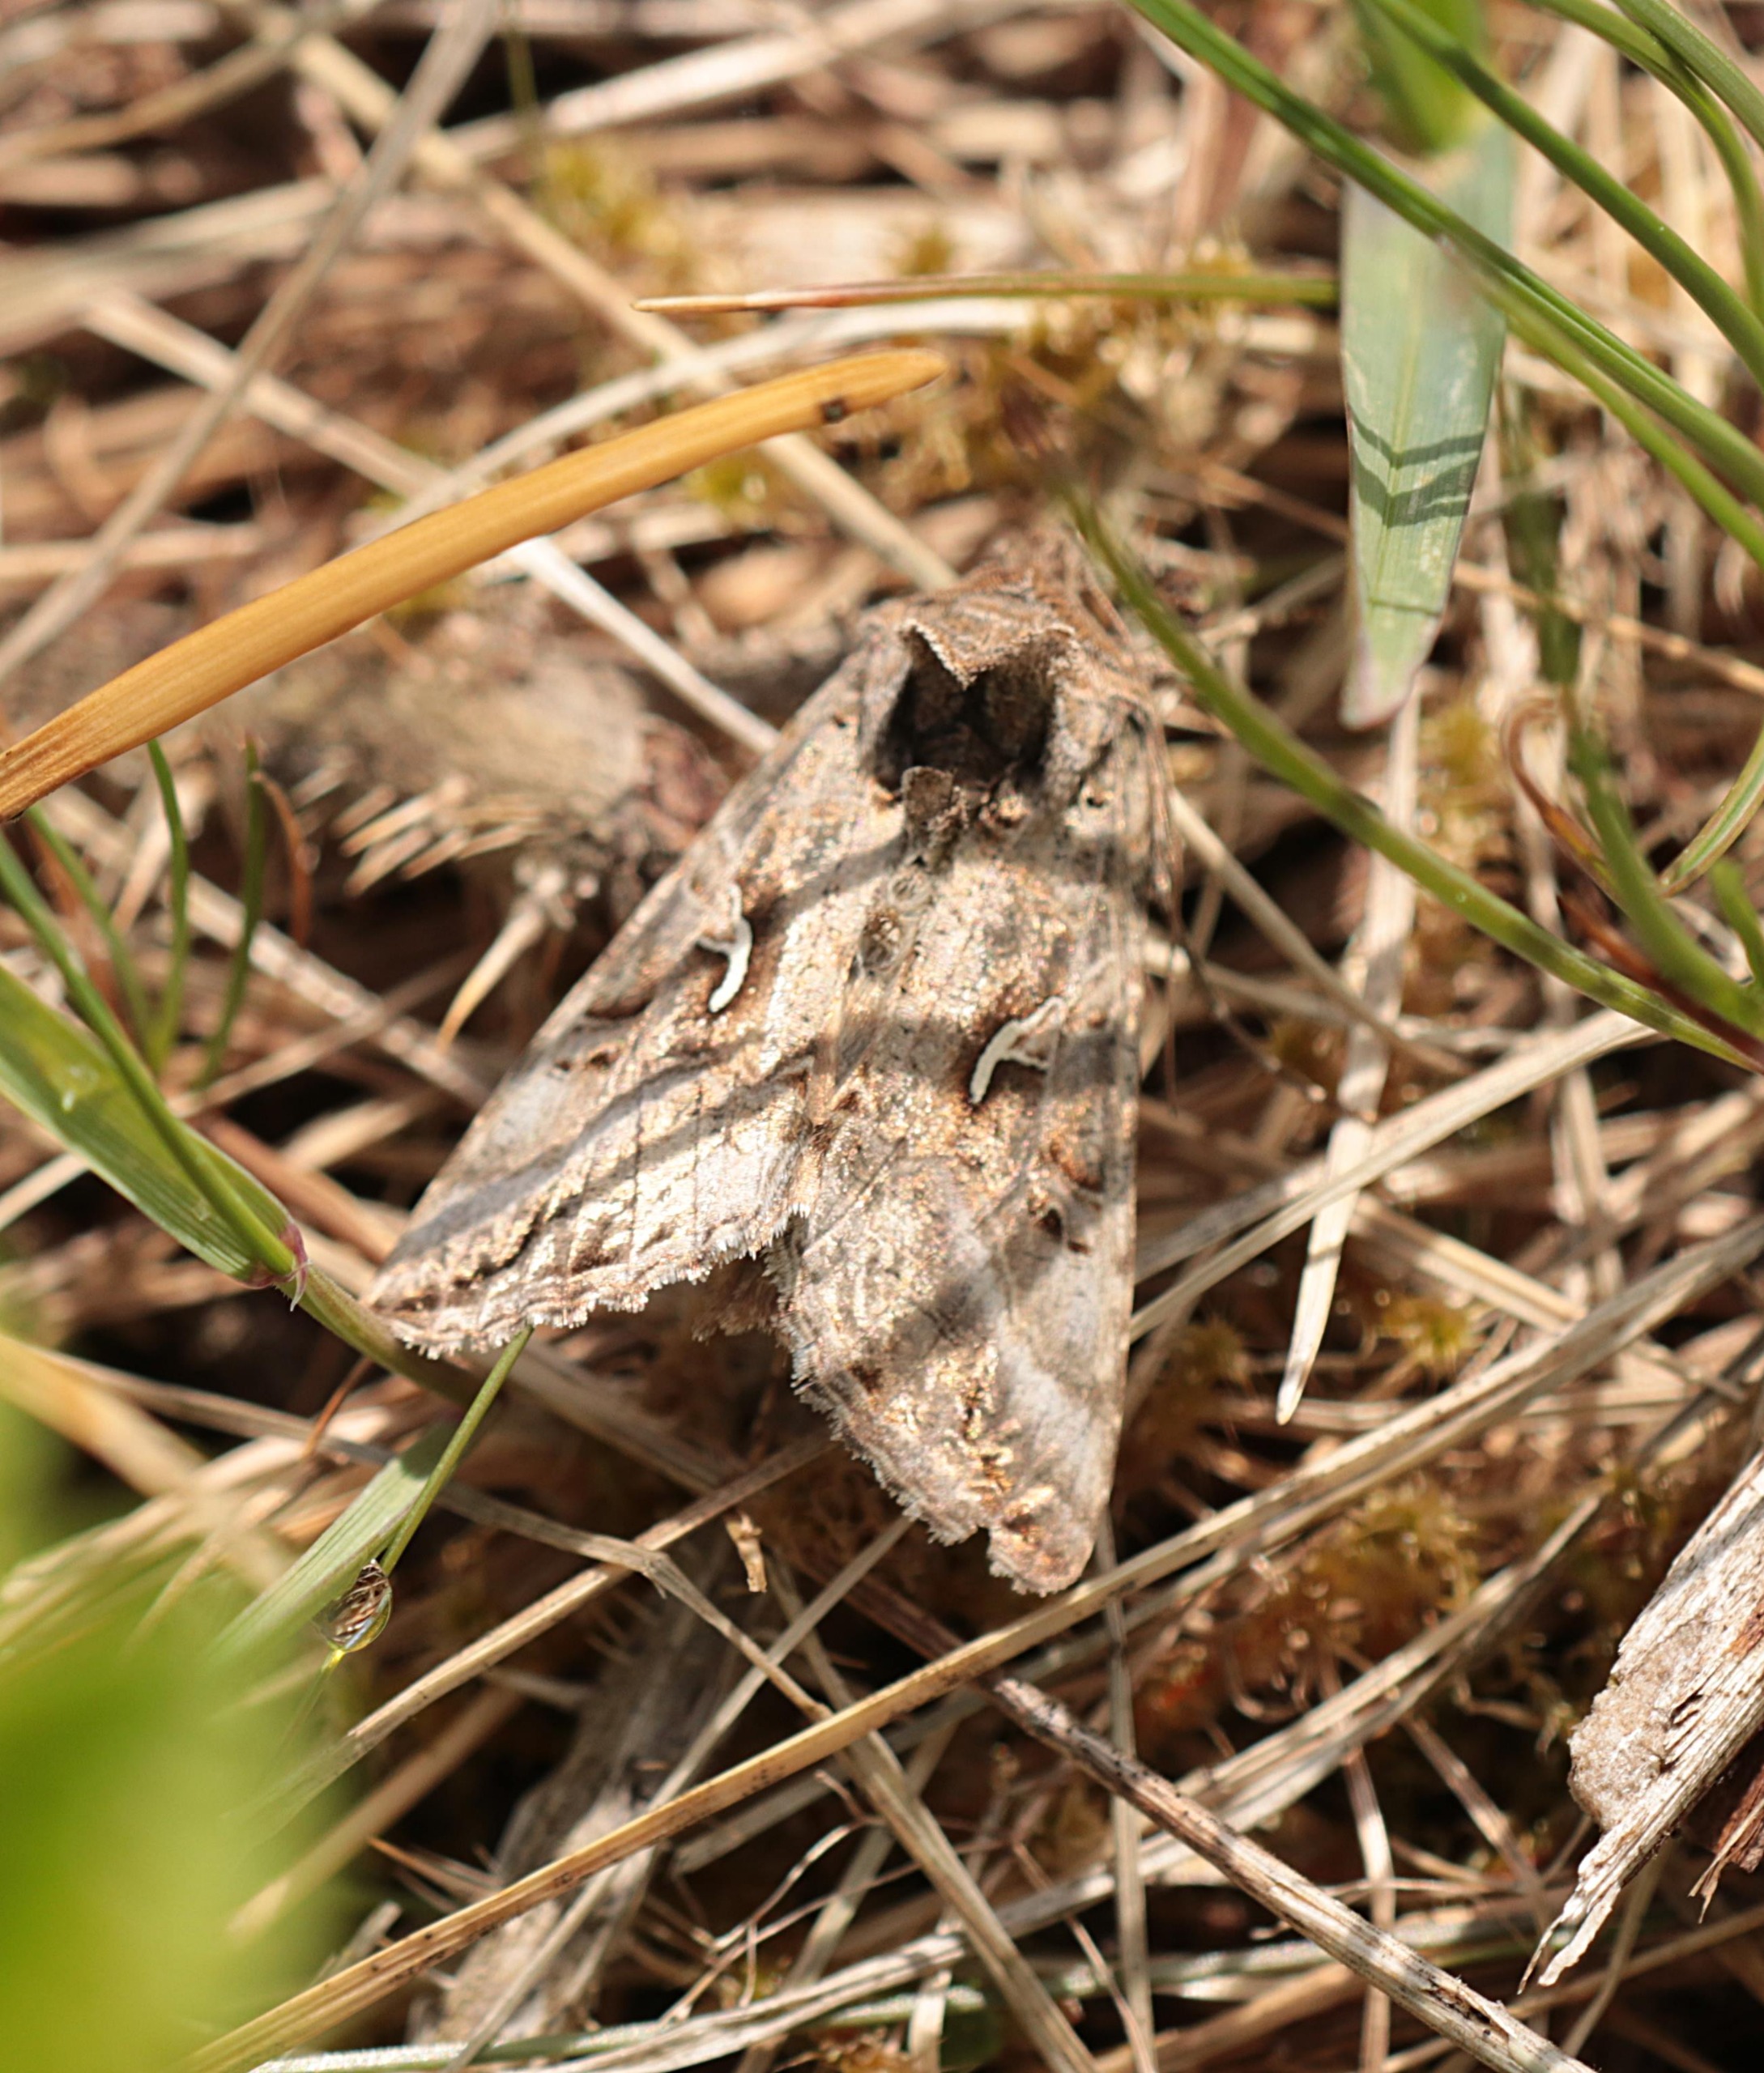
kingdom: Animalia
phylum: Arthropoda
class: Insecta
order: Lepidoptera
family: Noctuidae
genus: Autographa
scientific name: Autographa gamma
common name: Gammaugle
